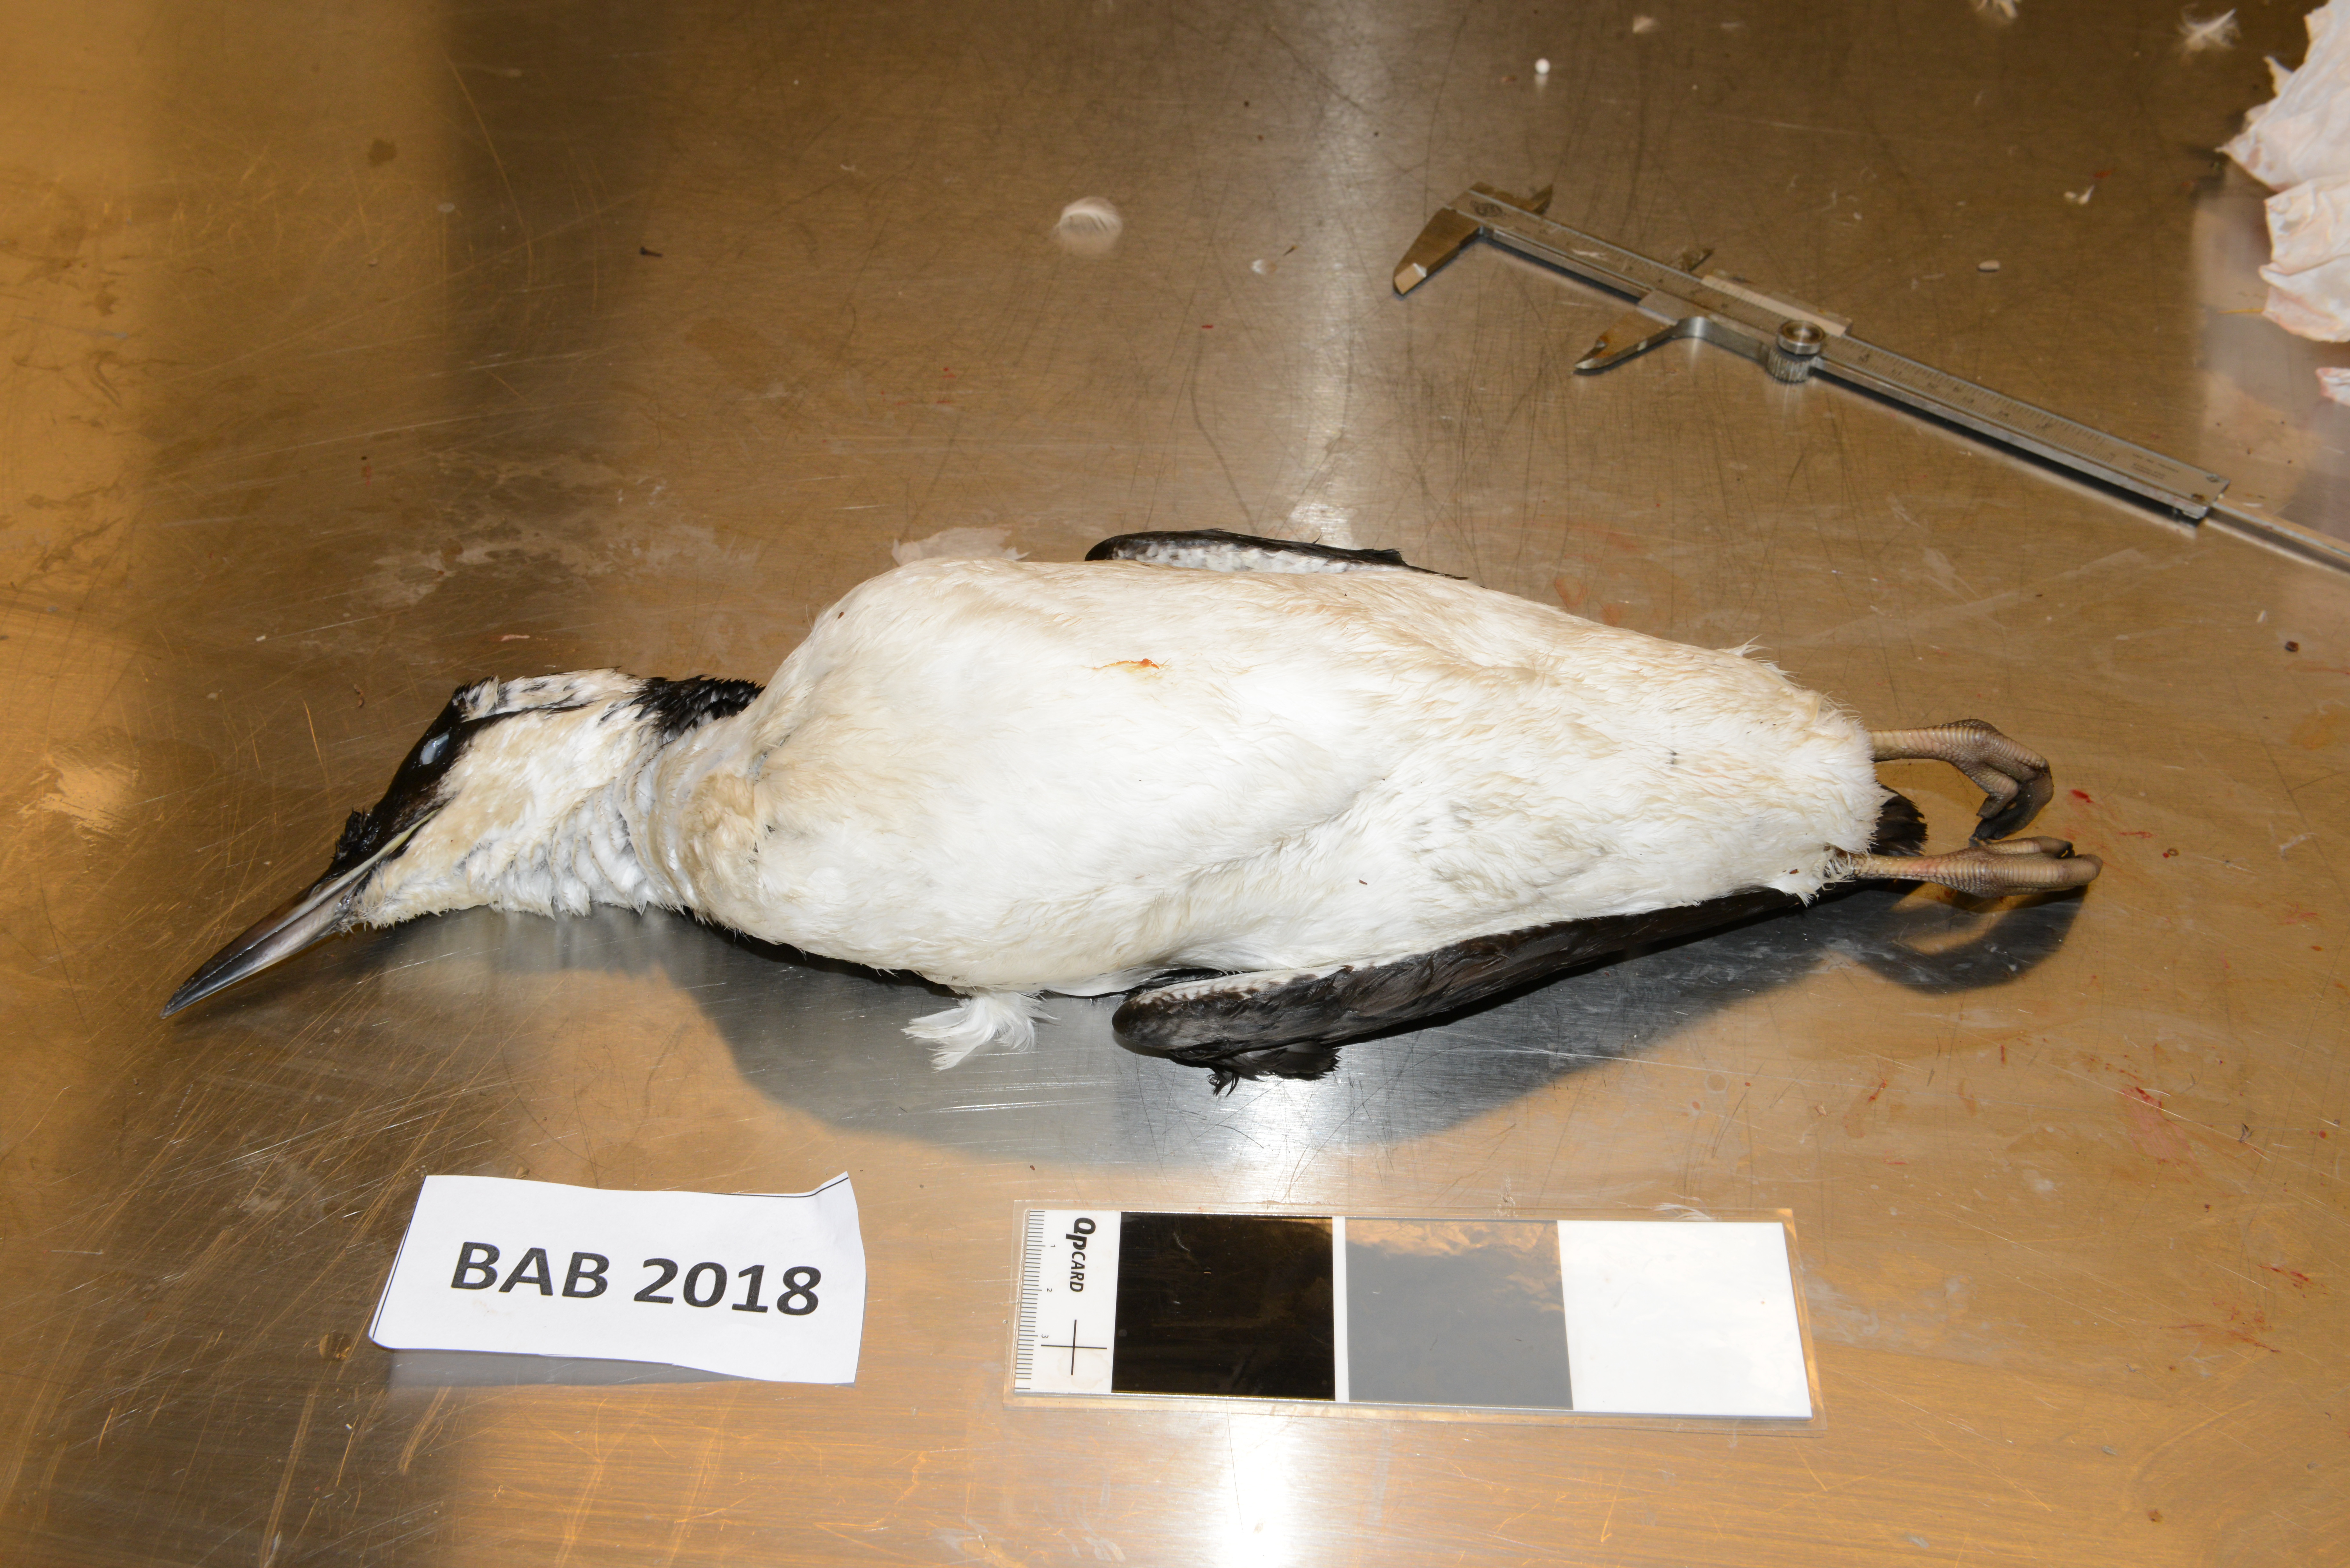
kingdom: Animalia
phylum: Chordata
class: Aves
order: Charadriiformes
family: Alcidae
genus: Uria
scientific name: Uria aalge
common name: Common murre
